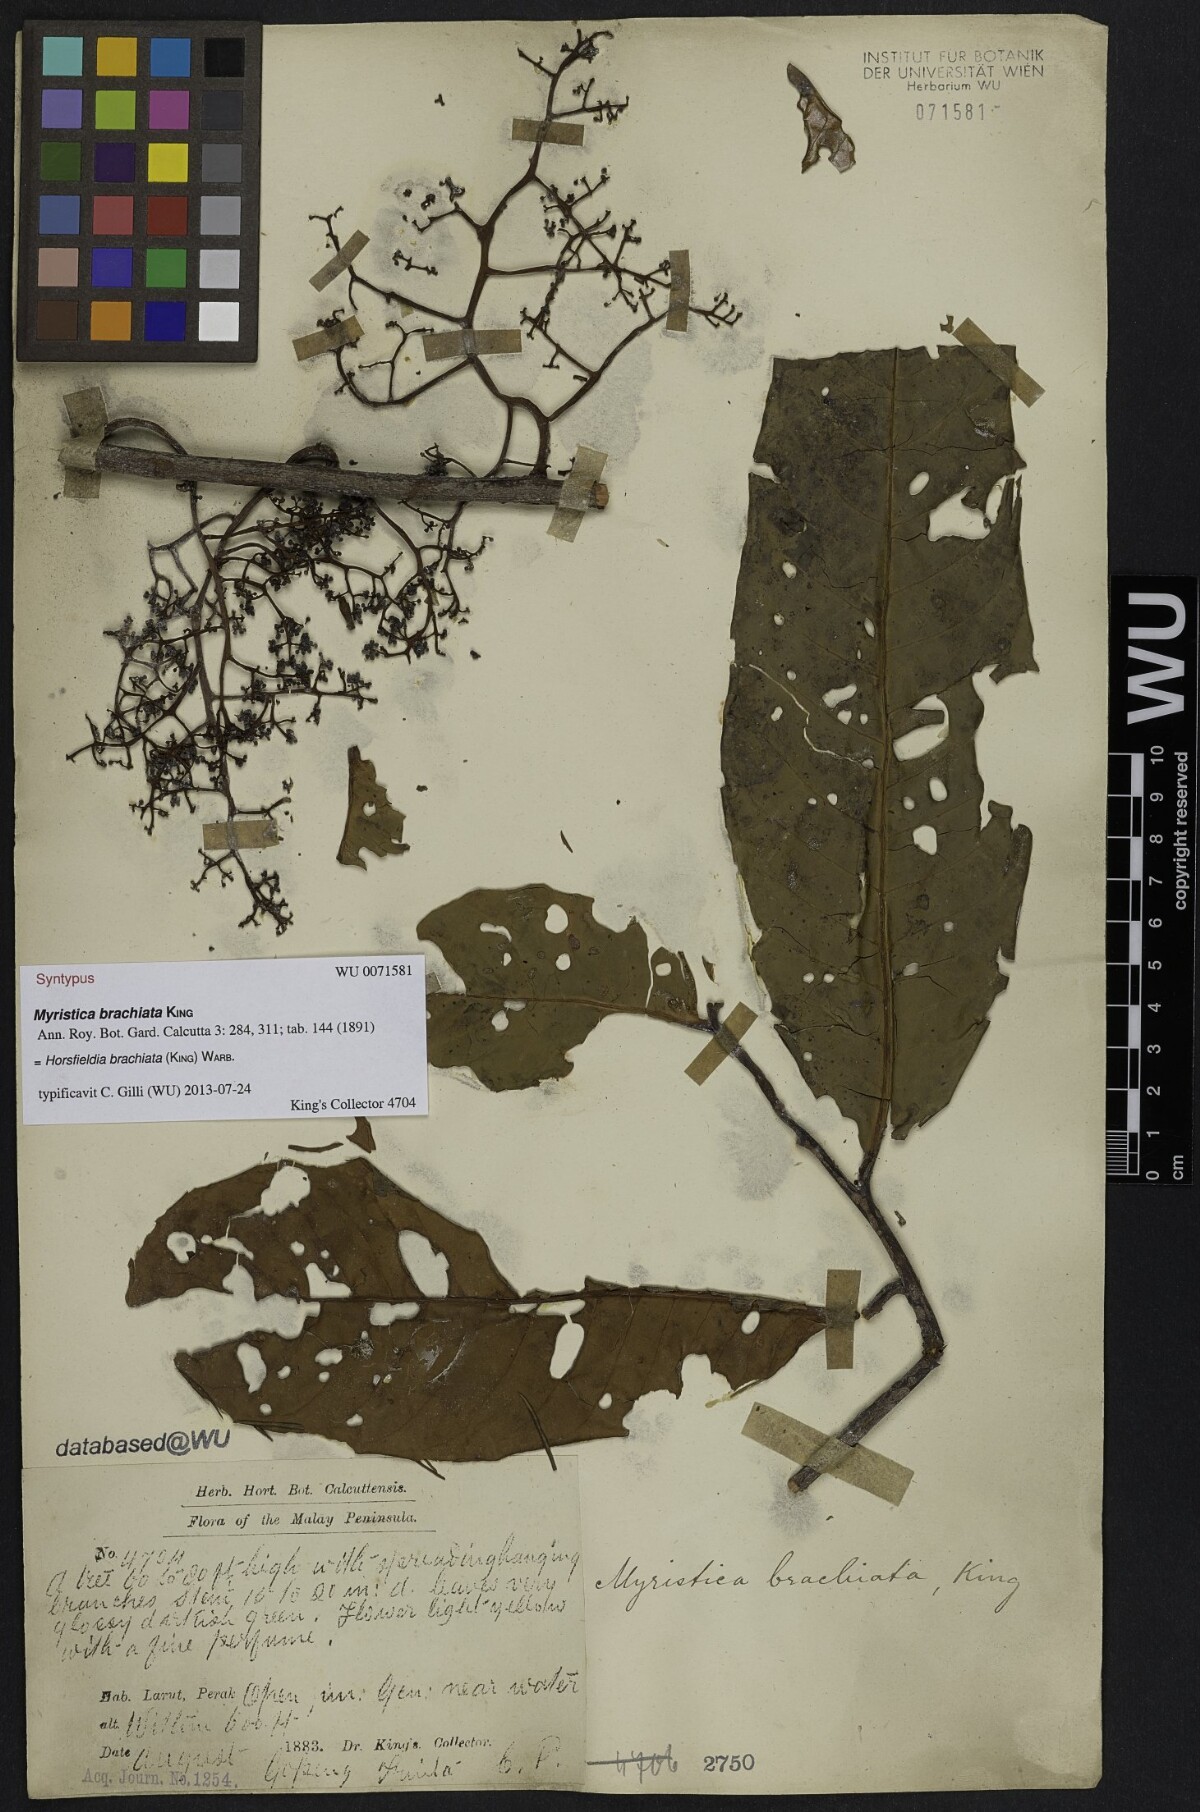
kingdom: Plantae
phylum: Tracheophyta
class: Magnoliopsida
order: Magnoliales
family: Myristicaceae
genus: Horsfieldia
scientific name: Horsfieldia brachiata
